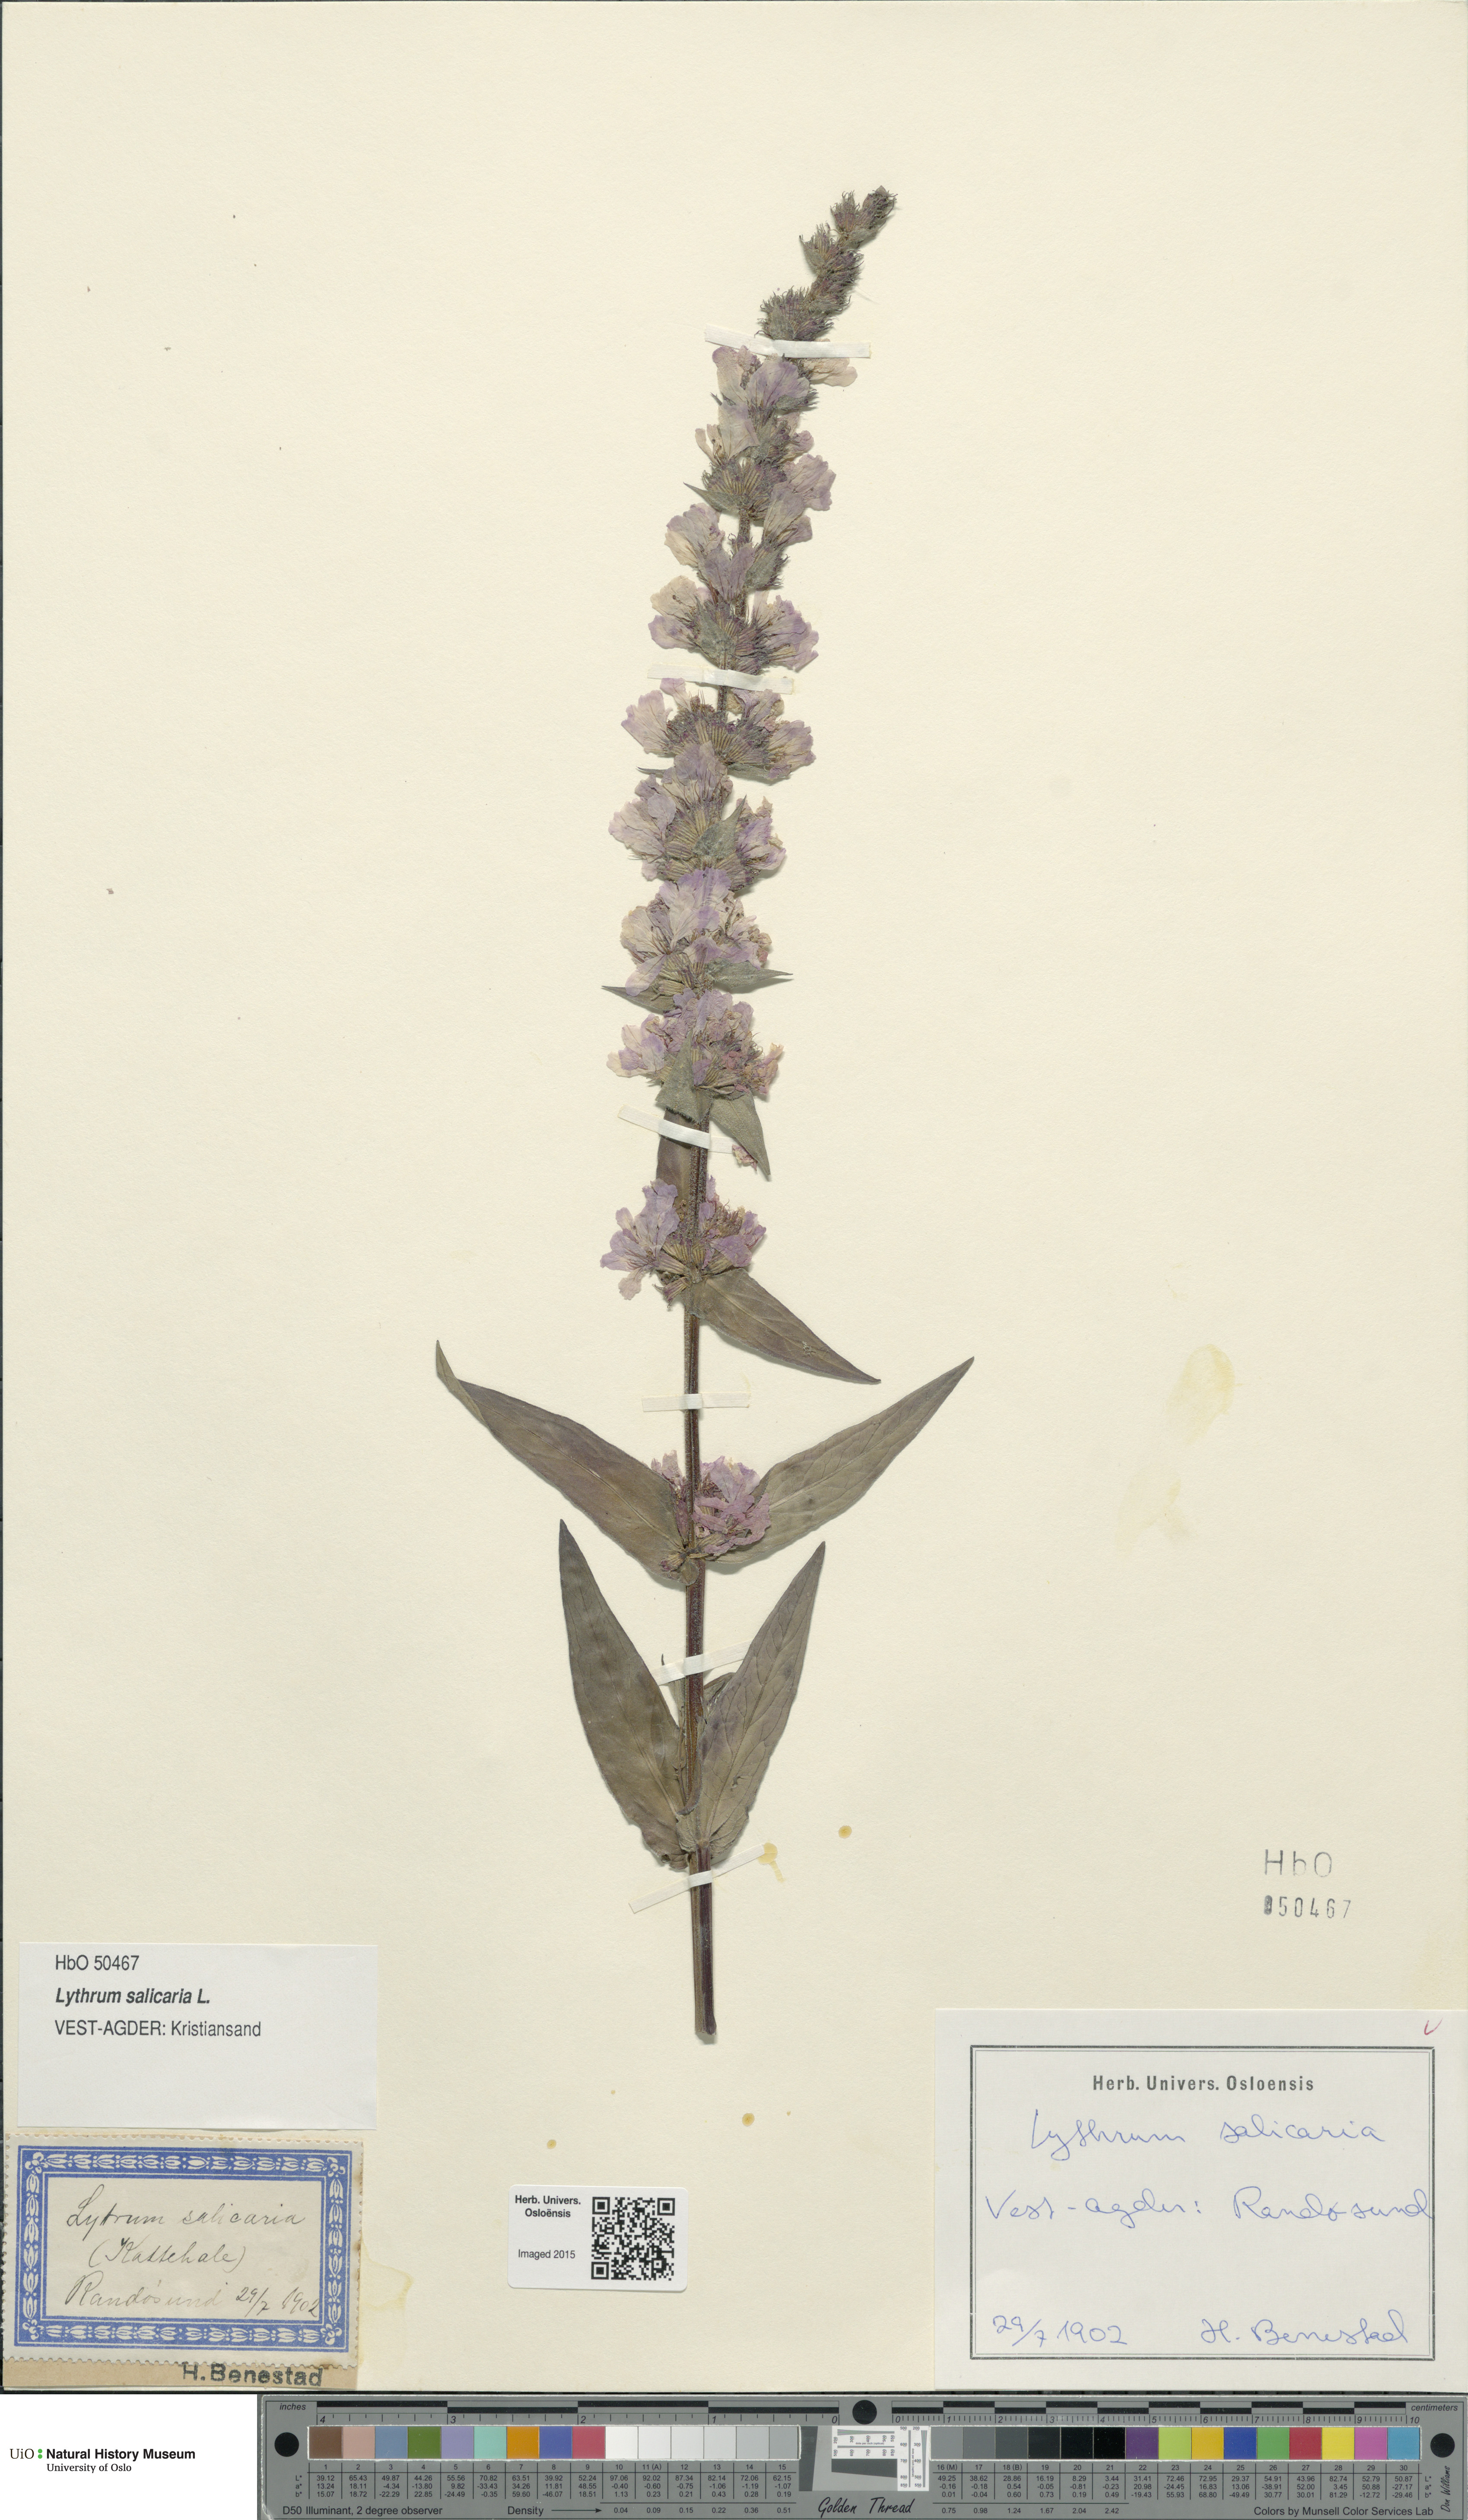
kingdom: Plantae
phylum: Tracheophyta
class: Magnoliopsida
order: Myrtales
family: Lythraceae
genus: Lythrum
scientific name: Lythrum salicaria
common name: Purple loosestrife
